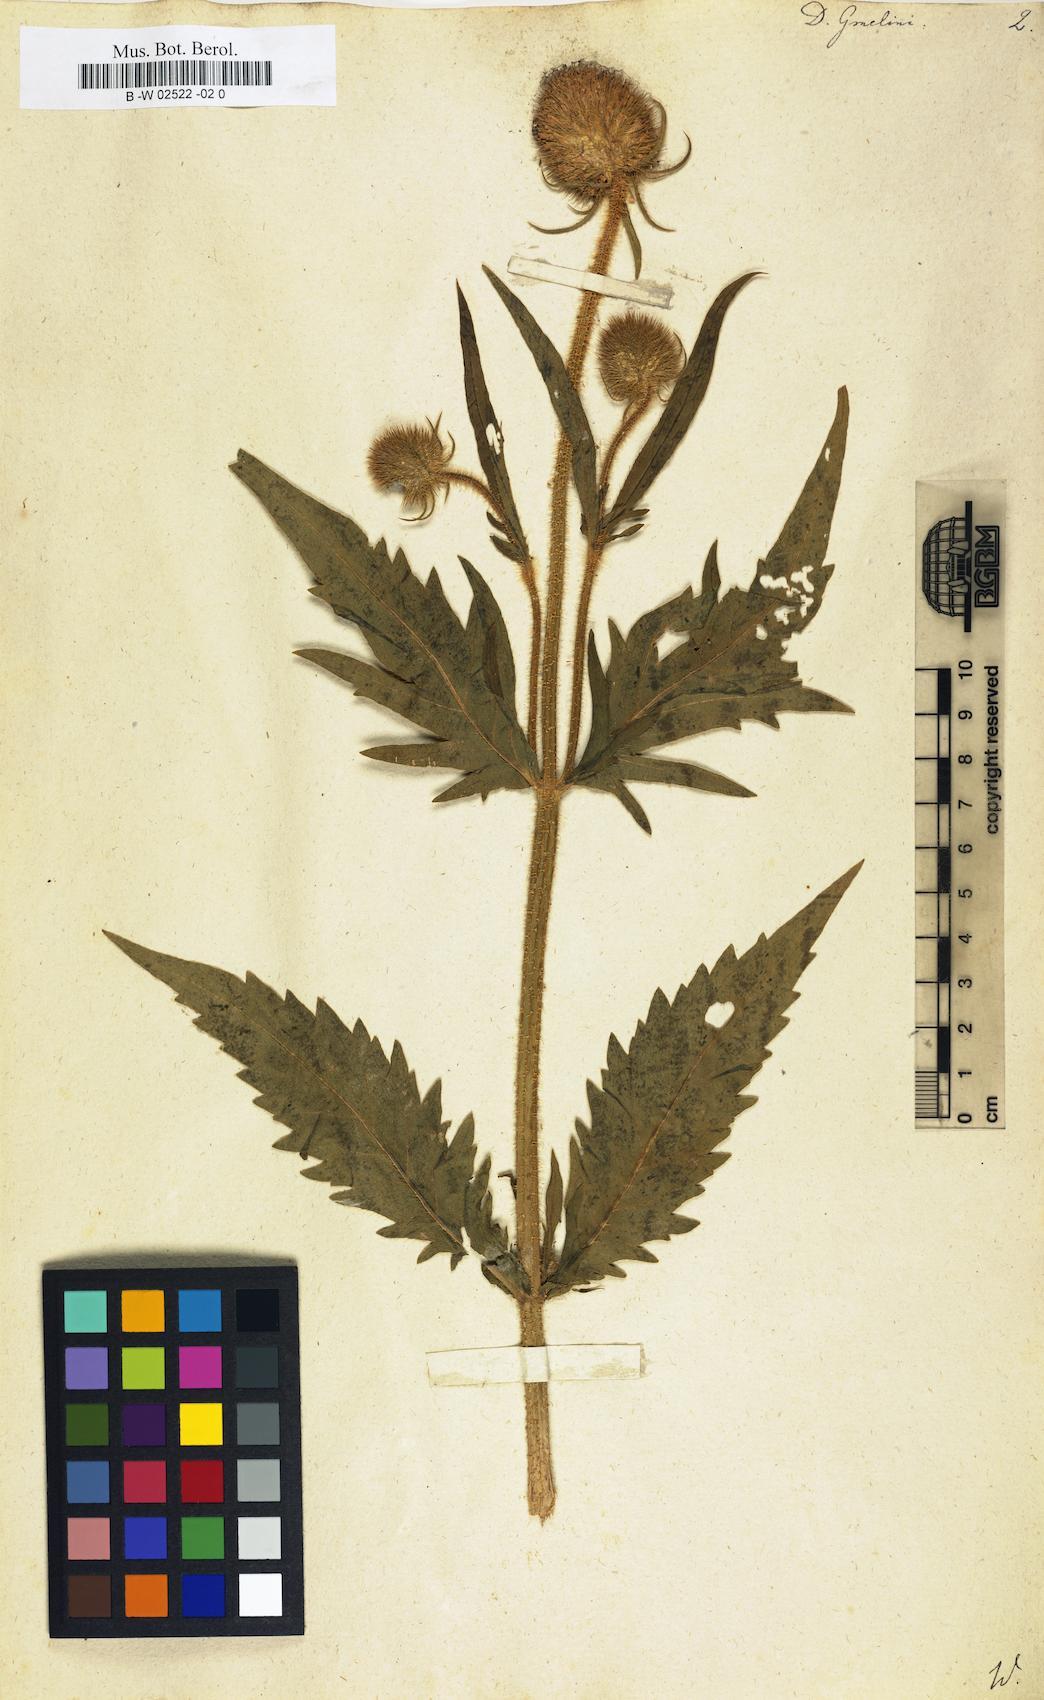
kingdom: Plantae
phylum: Tracheophyta
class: Magnoliopsida
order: Dipsacales
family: Caprifoliaceae
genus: Dipsacus
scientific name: Dipsacus strigosus
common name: Yellow-flowered teasel
